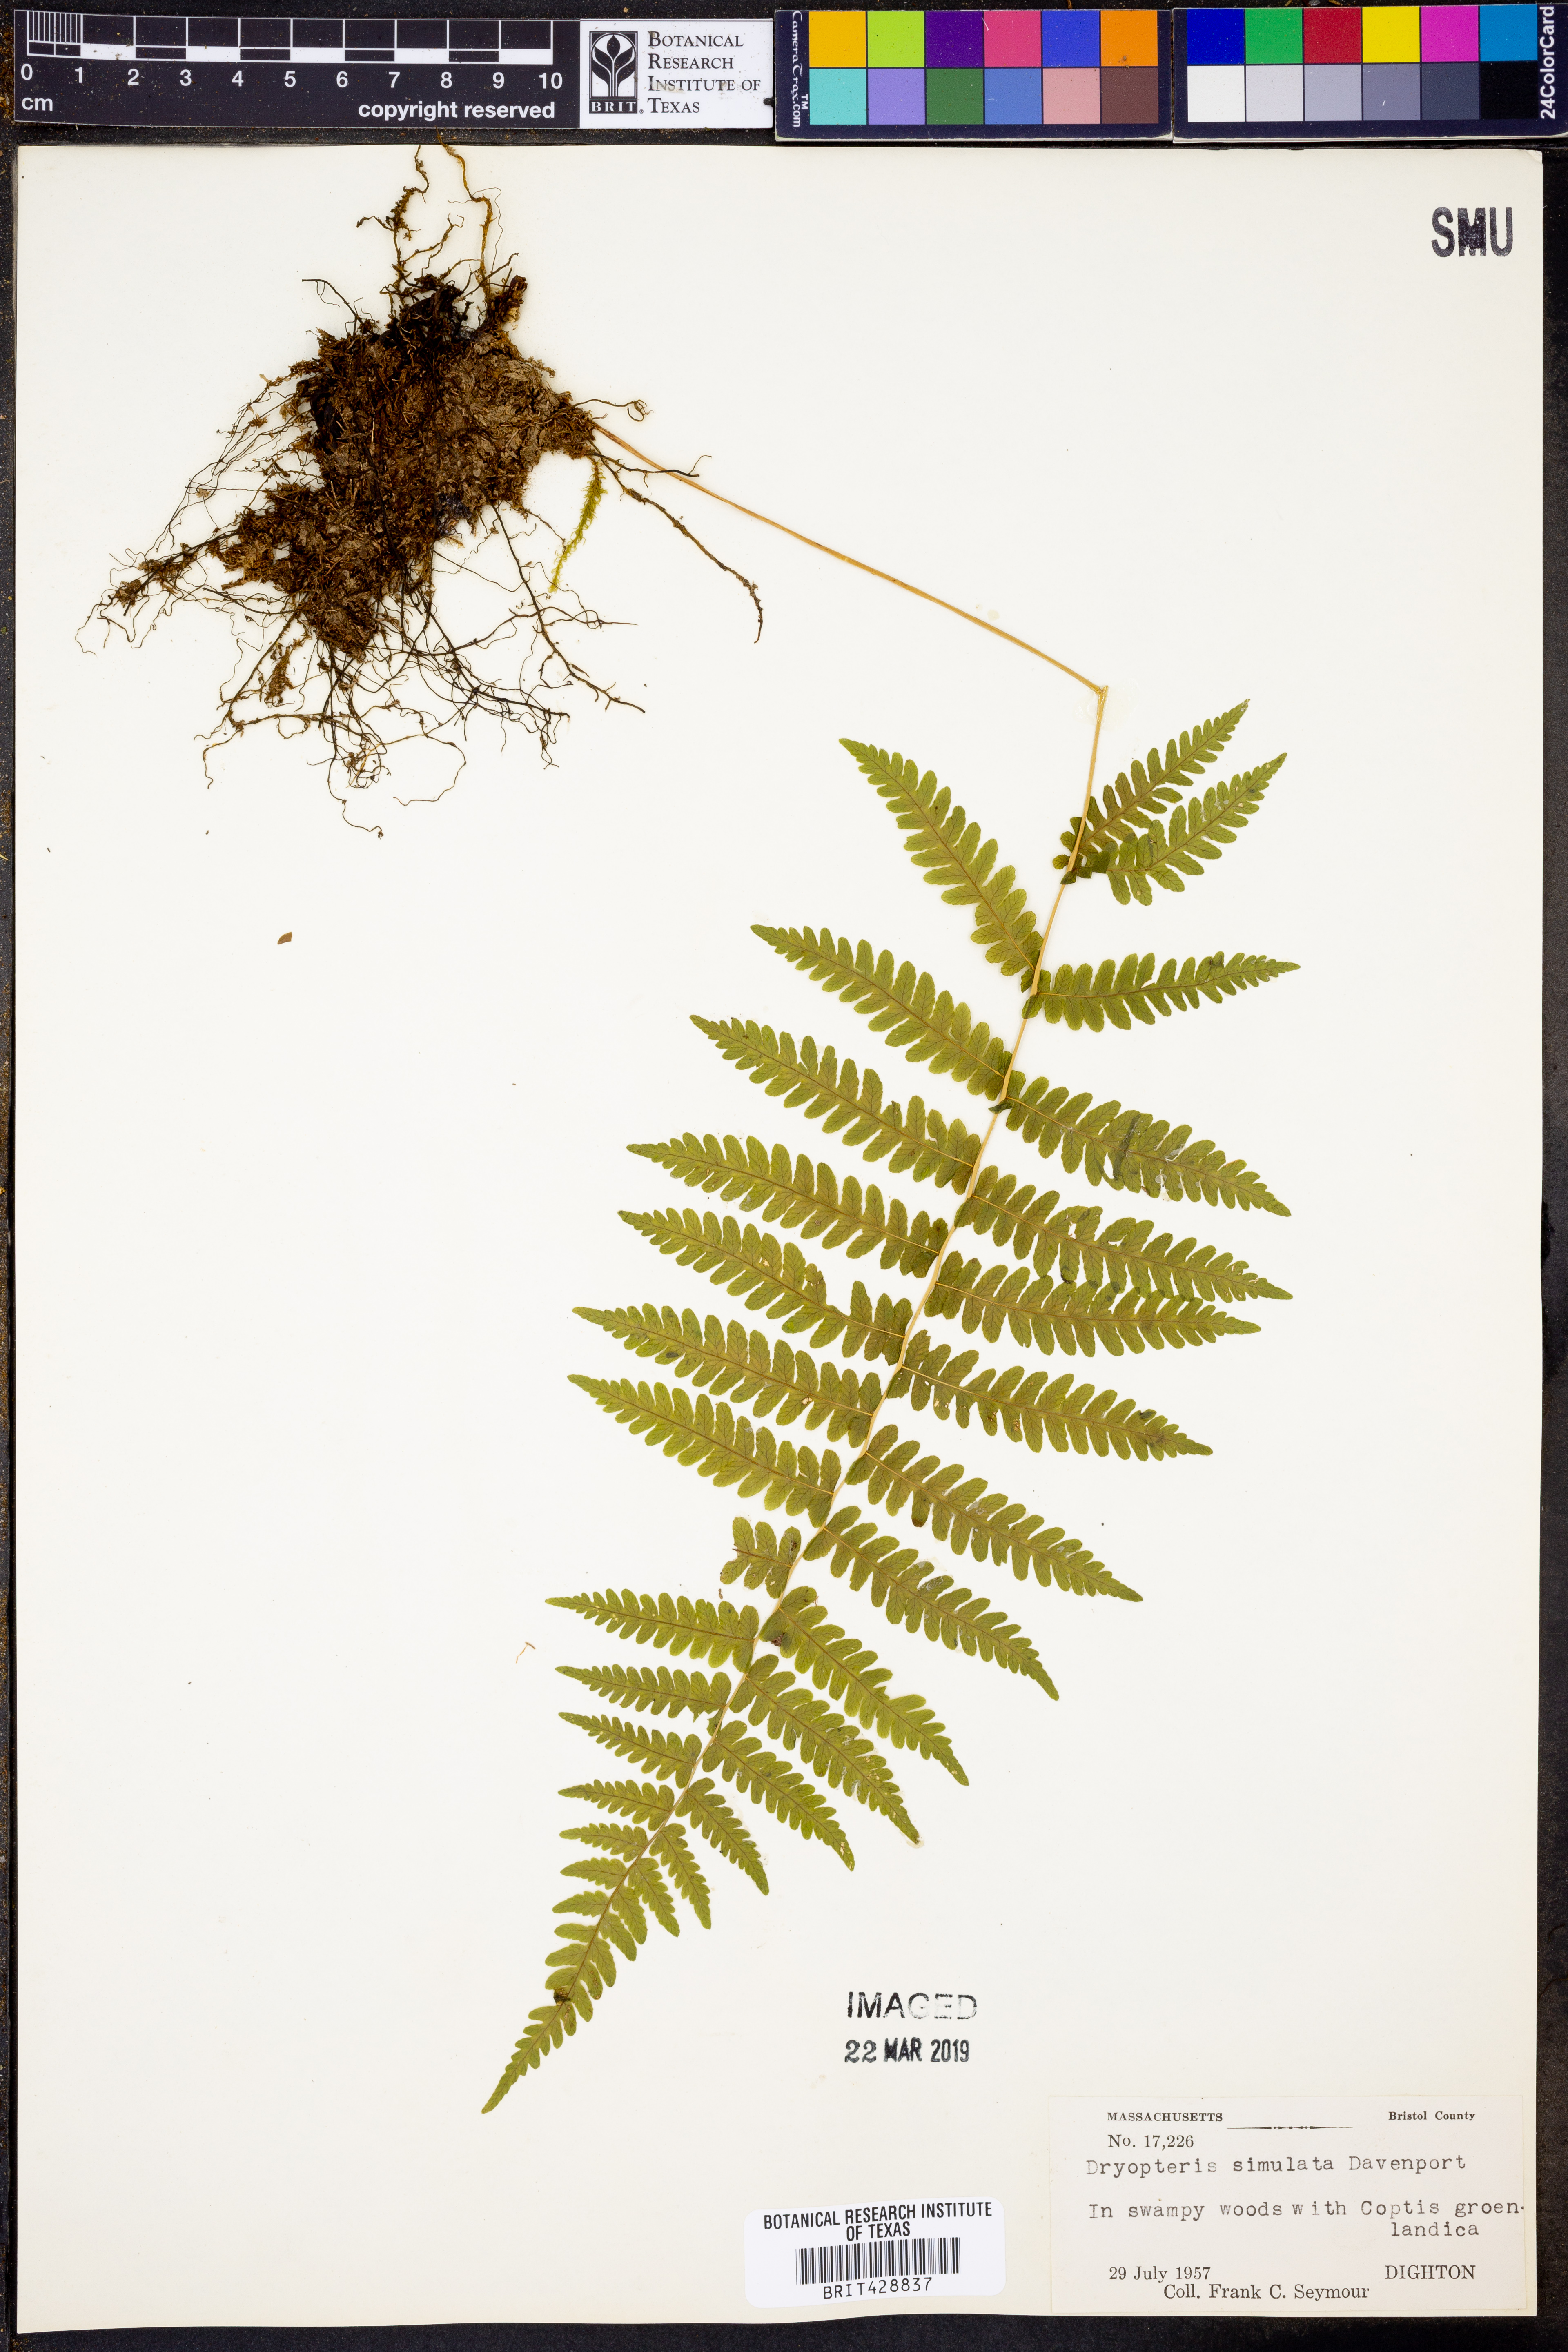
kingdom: Plantae
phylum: Tracheophyta
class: Polypodiopsida
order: Polypodiales
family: Thelypteridaceae
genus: Coryphopteris
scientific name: Coryphopteris simulata
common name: Bog fern
